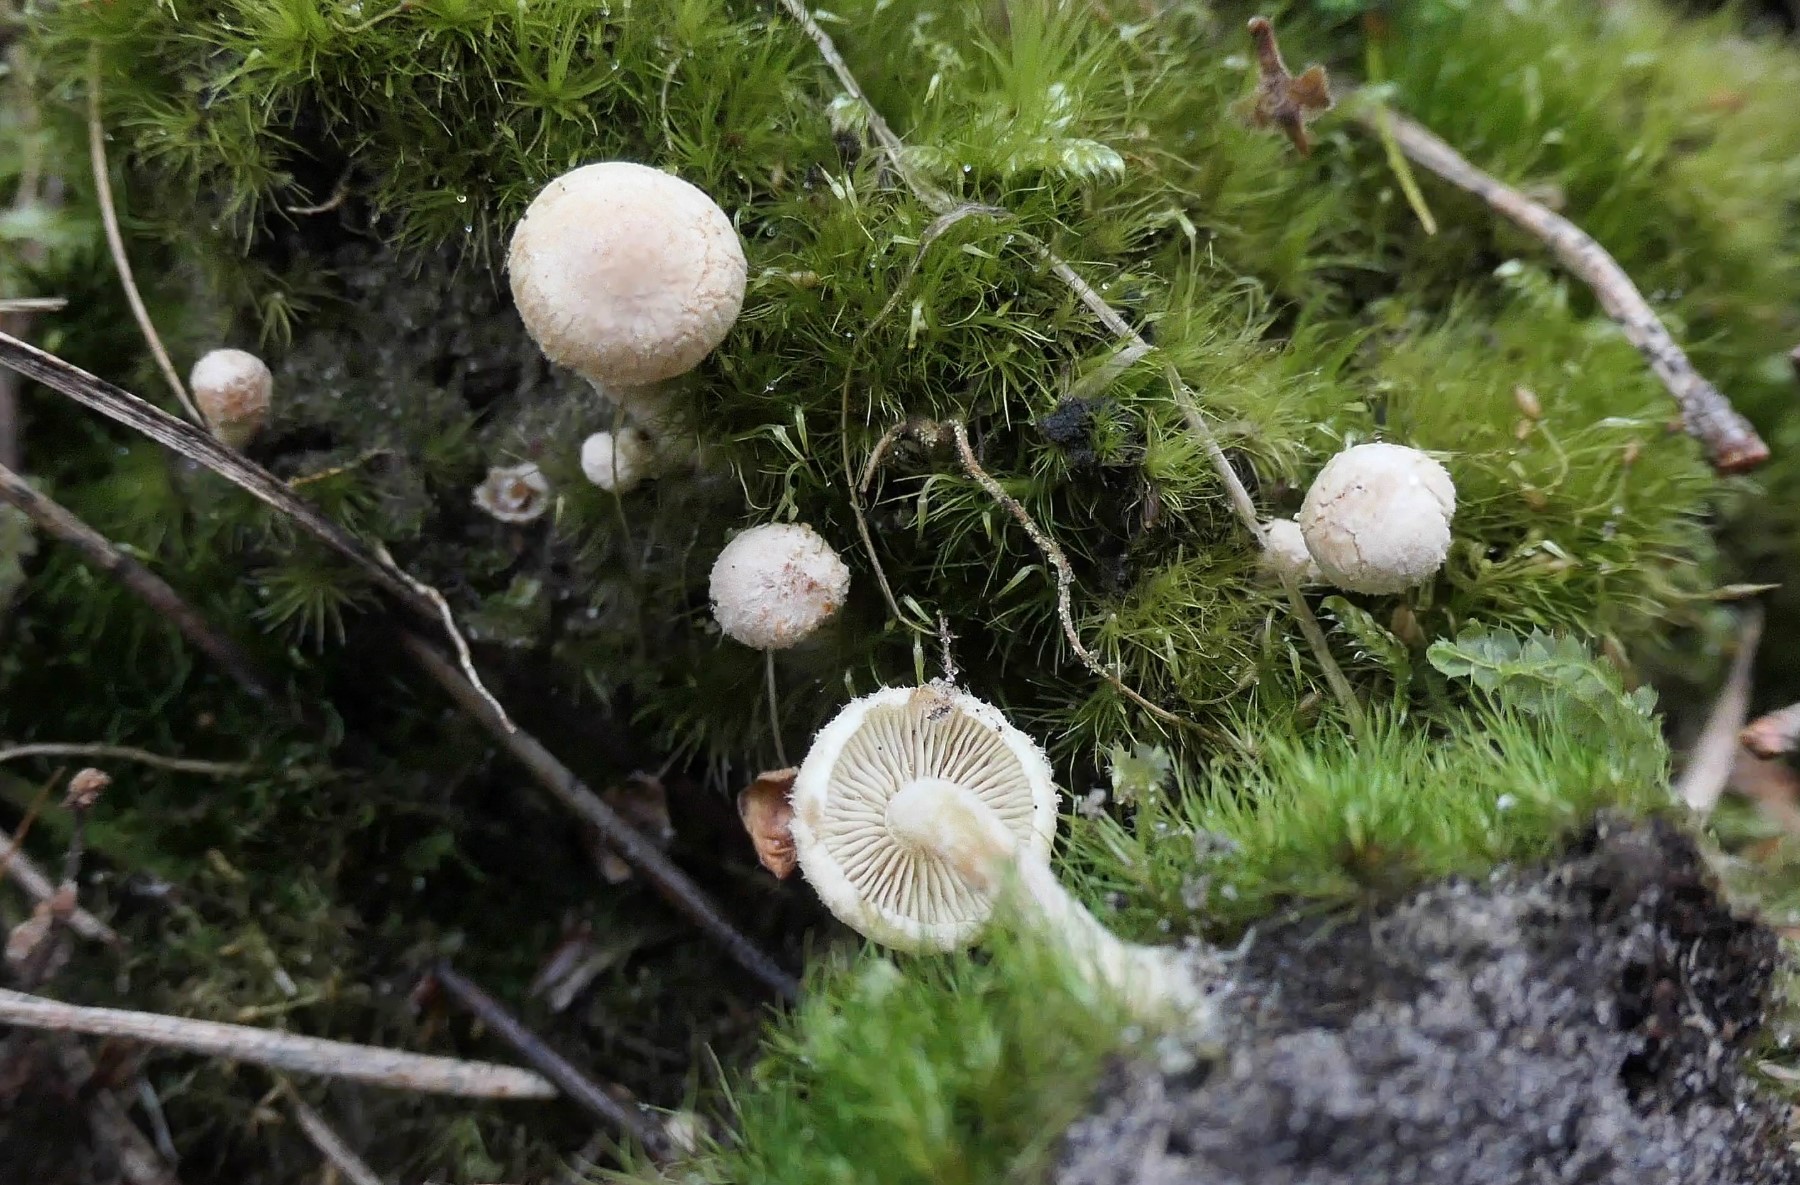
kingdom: Fungi
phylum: Basidiomycota
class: Agaricomycetes
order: Agaricales
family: Strophariaceae
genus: Pholiota
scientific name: Pholiota scamba
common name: dværg-skælhat
